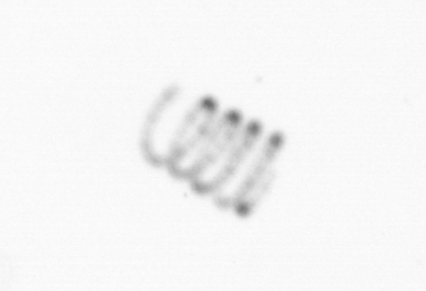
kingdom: Chromista
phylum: Ochrophyta
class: Bacillariophyceae
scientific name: Bacillariophyceae
